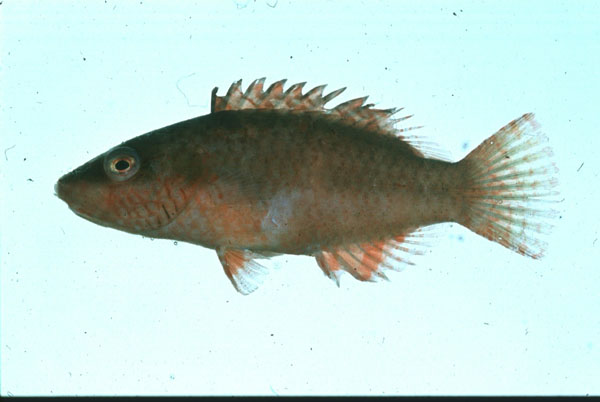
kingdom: Animalia
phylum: Chordata
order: Perciformes
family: Labridae
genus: Oxycheilinus
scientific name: Oxycheilinus digramma
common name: Bandcheek wrasse
